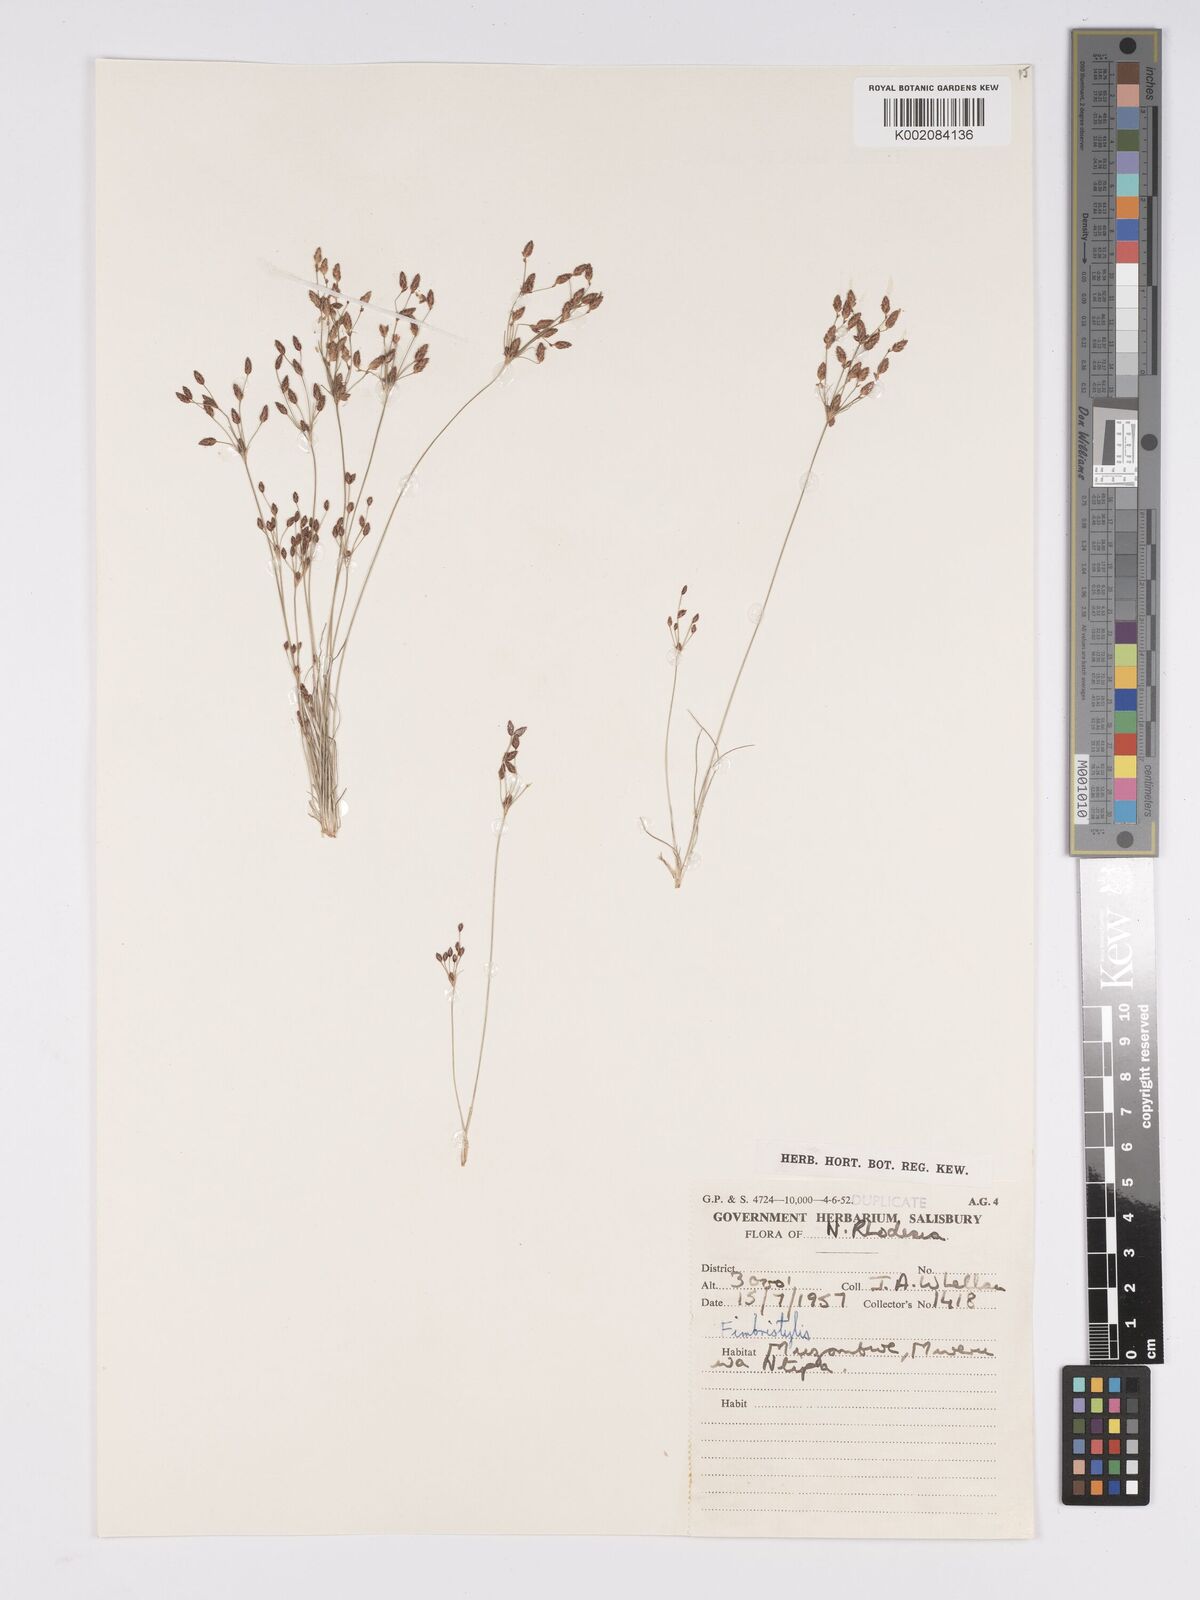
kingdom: Plantae
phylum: Tracheophyta
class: Liliopsida
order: Poales
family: Cyperaceae
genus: Bulbostylis
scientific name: Bulbostylis
